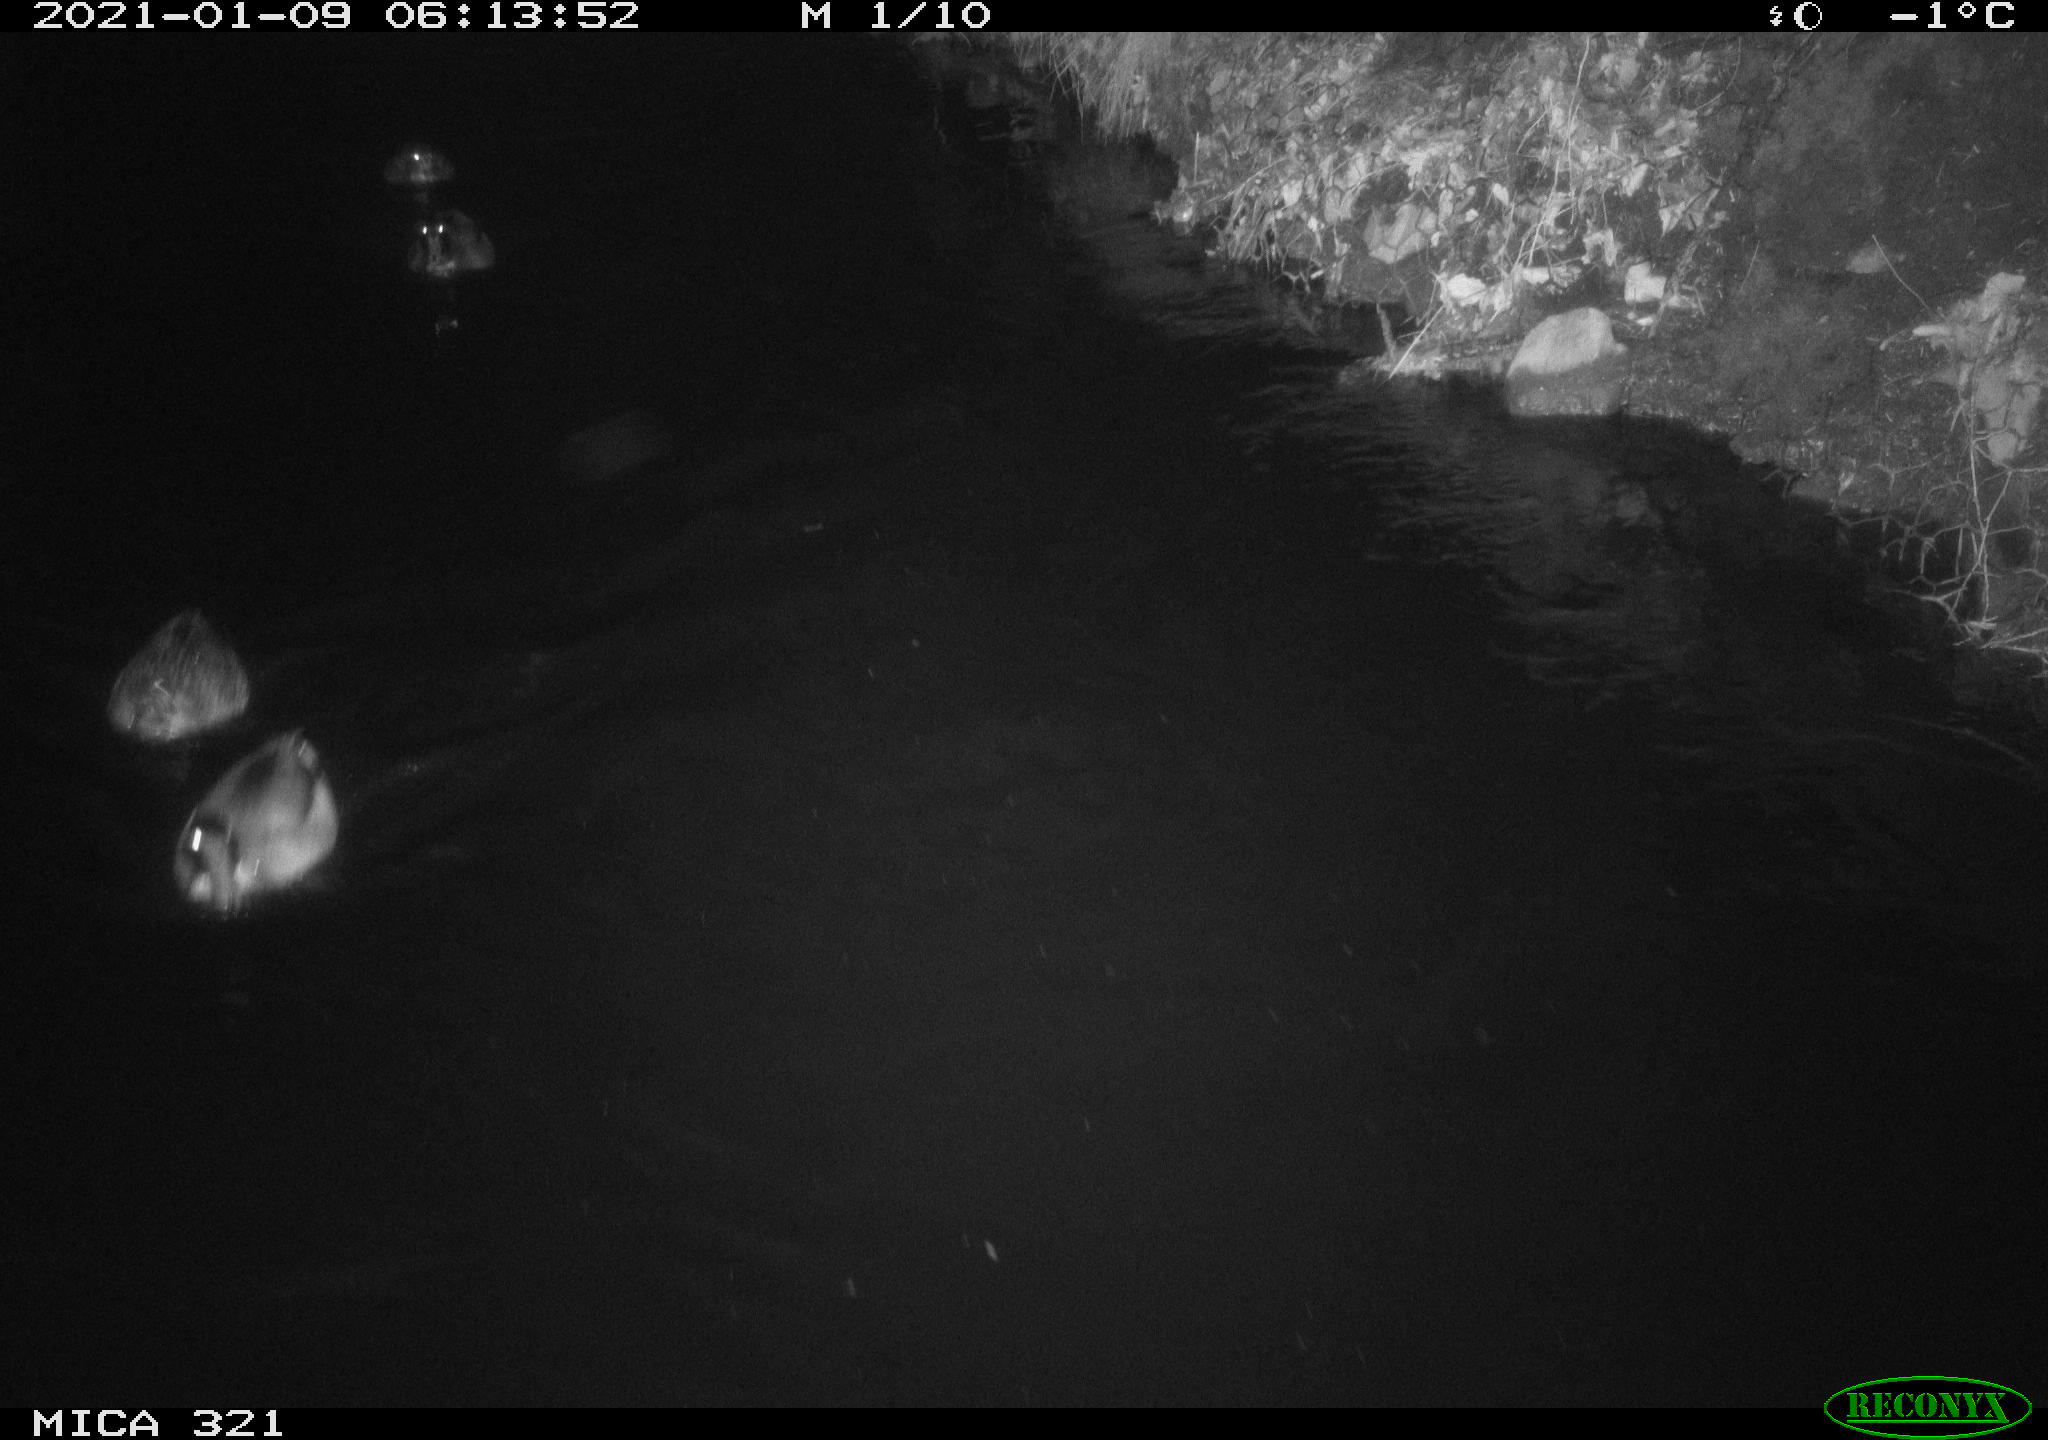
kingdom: Animalia
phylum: Chordata
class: Aves
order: Anseriformes
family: Anatidae
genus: Anas
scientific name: Anas platyrhynchos
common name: Mallard
